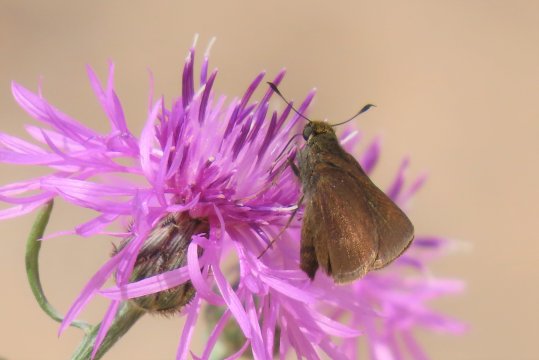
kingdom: Animalia
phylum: Arthropoda
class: Insecta
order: Lepidoptera
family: Hesperiidae
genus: Euphyes
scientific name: Euphyes vestris
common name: Dun Skipper
